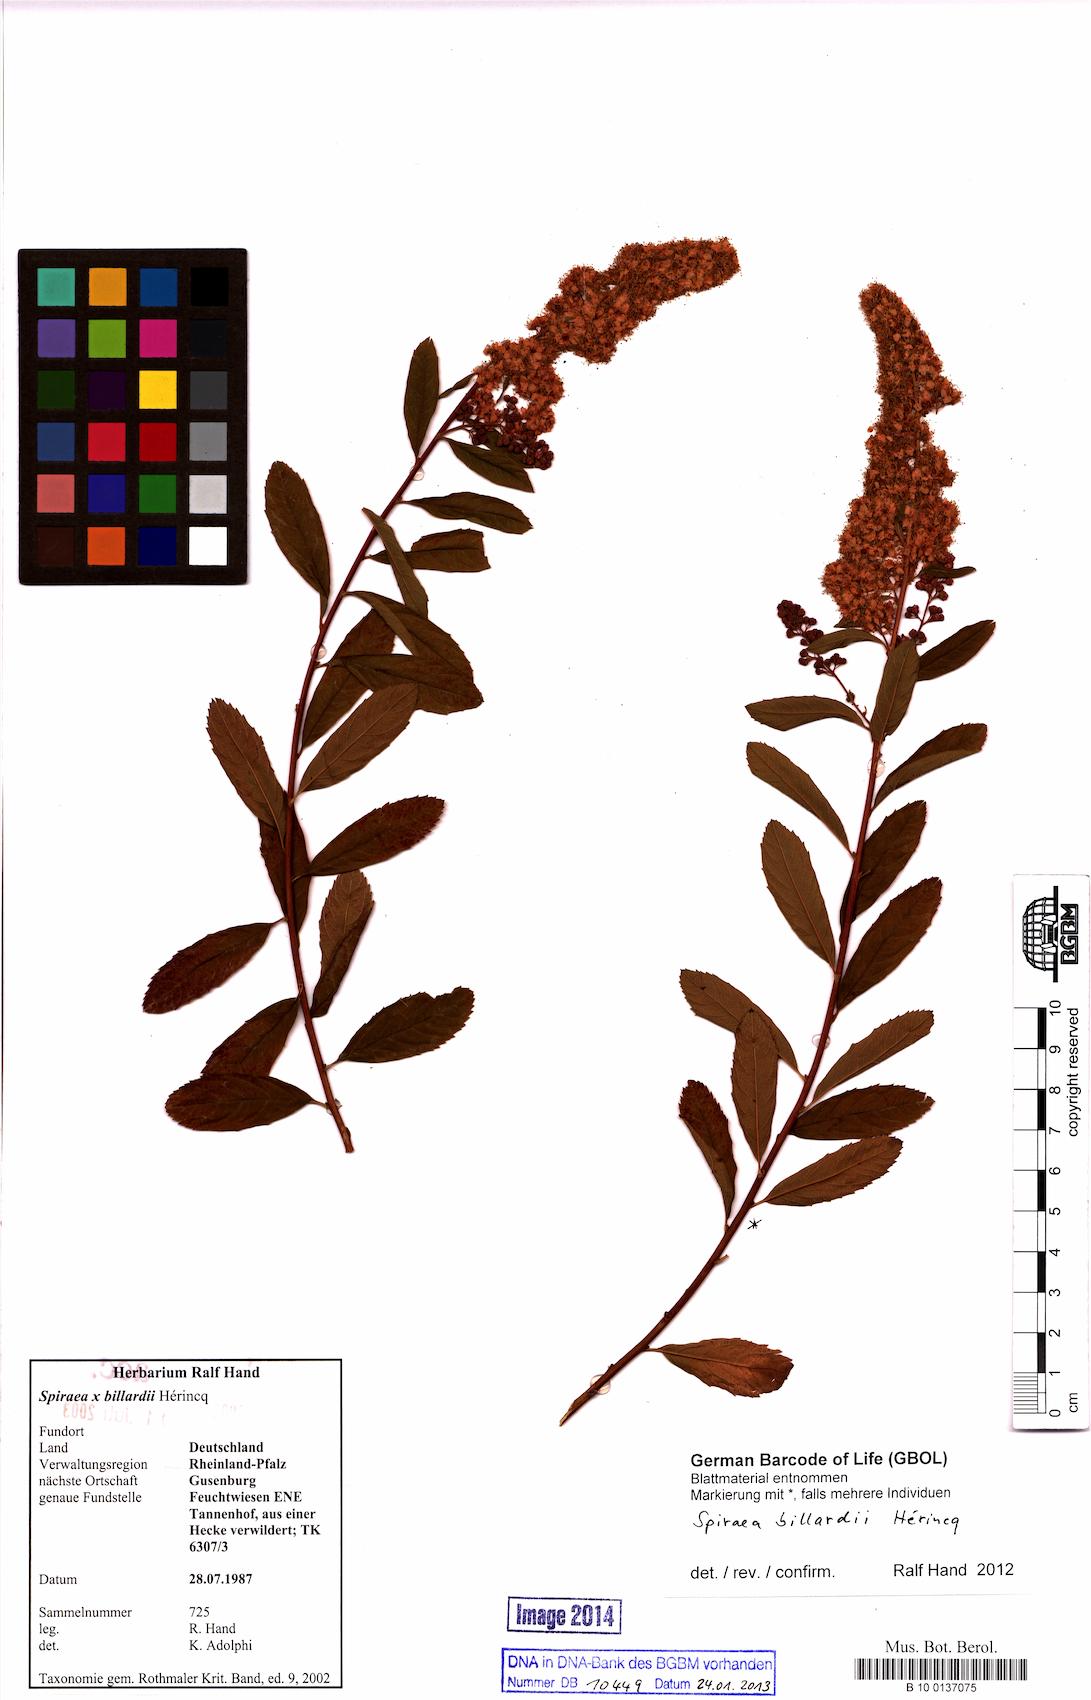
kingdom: Plantae
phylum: Tracheophyta
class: Magnoliopsida
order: Rosales
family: Rosaceae
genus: Spiraea
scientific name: Spiraea billardii
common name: Billard's bridewort
